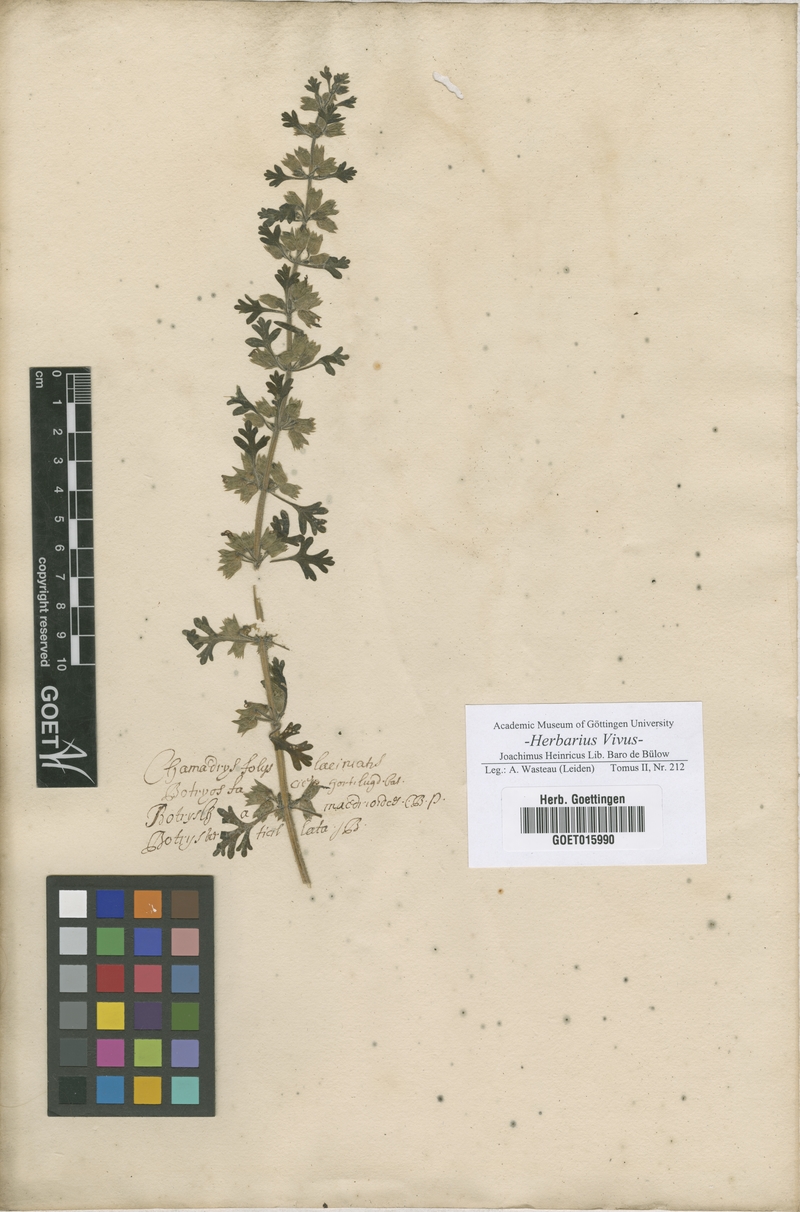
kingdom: Plantae
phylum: Tracheophyta
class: Magnoliopsida
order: Lamiales
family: Lamiaceae
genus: Teucrium
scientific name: Teucrium botrys
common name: Cut-leaved germander
